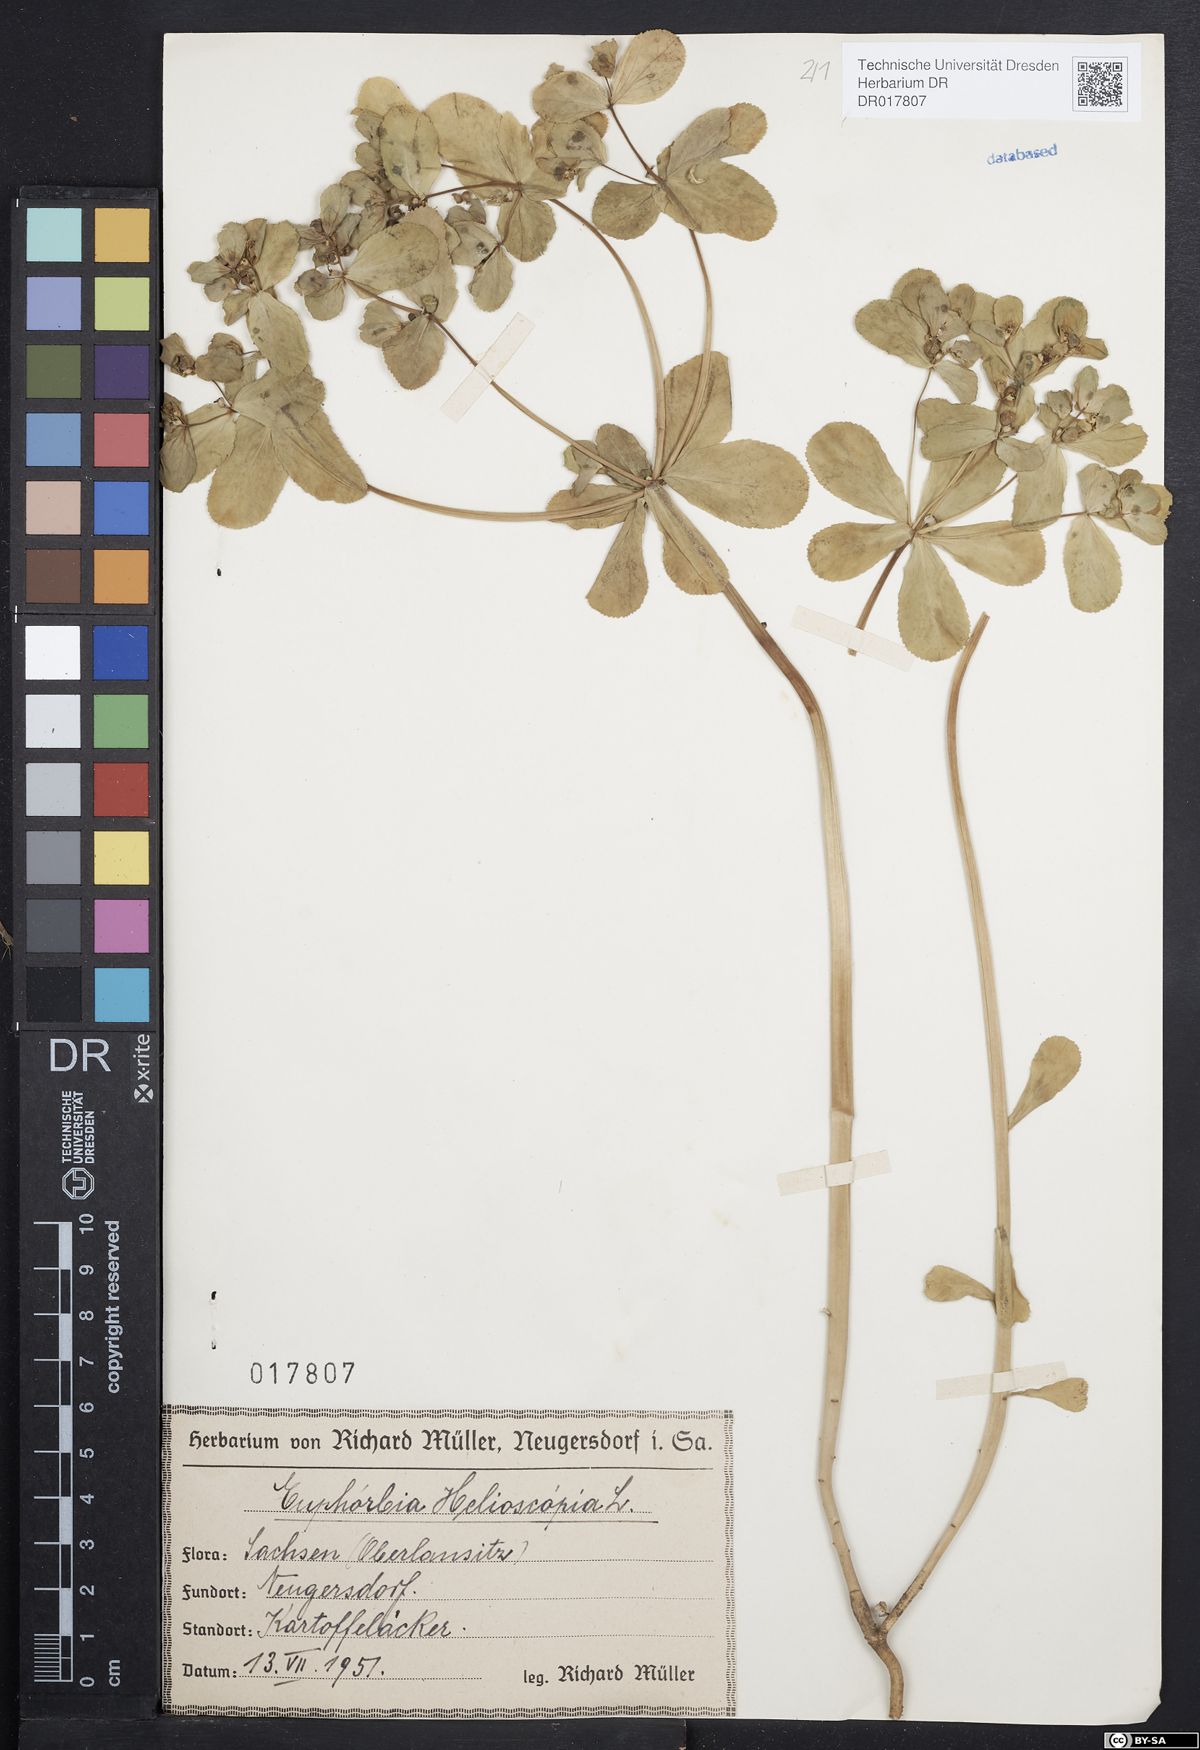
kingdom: Plantae
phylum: Tracheophyta
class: Magnoliopsida
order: Malpighiales
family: Euphorbiaceae
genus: Euphorbia
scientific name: Euphorbia helioscopia
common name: Sun spurge
